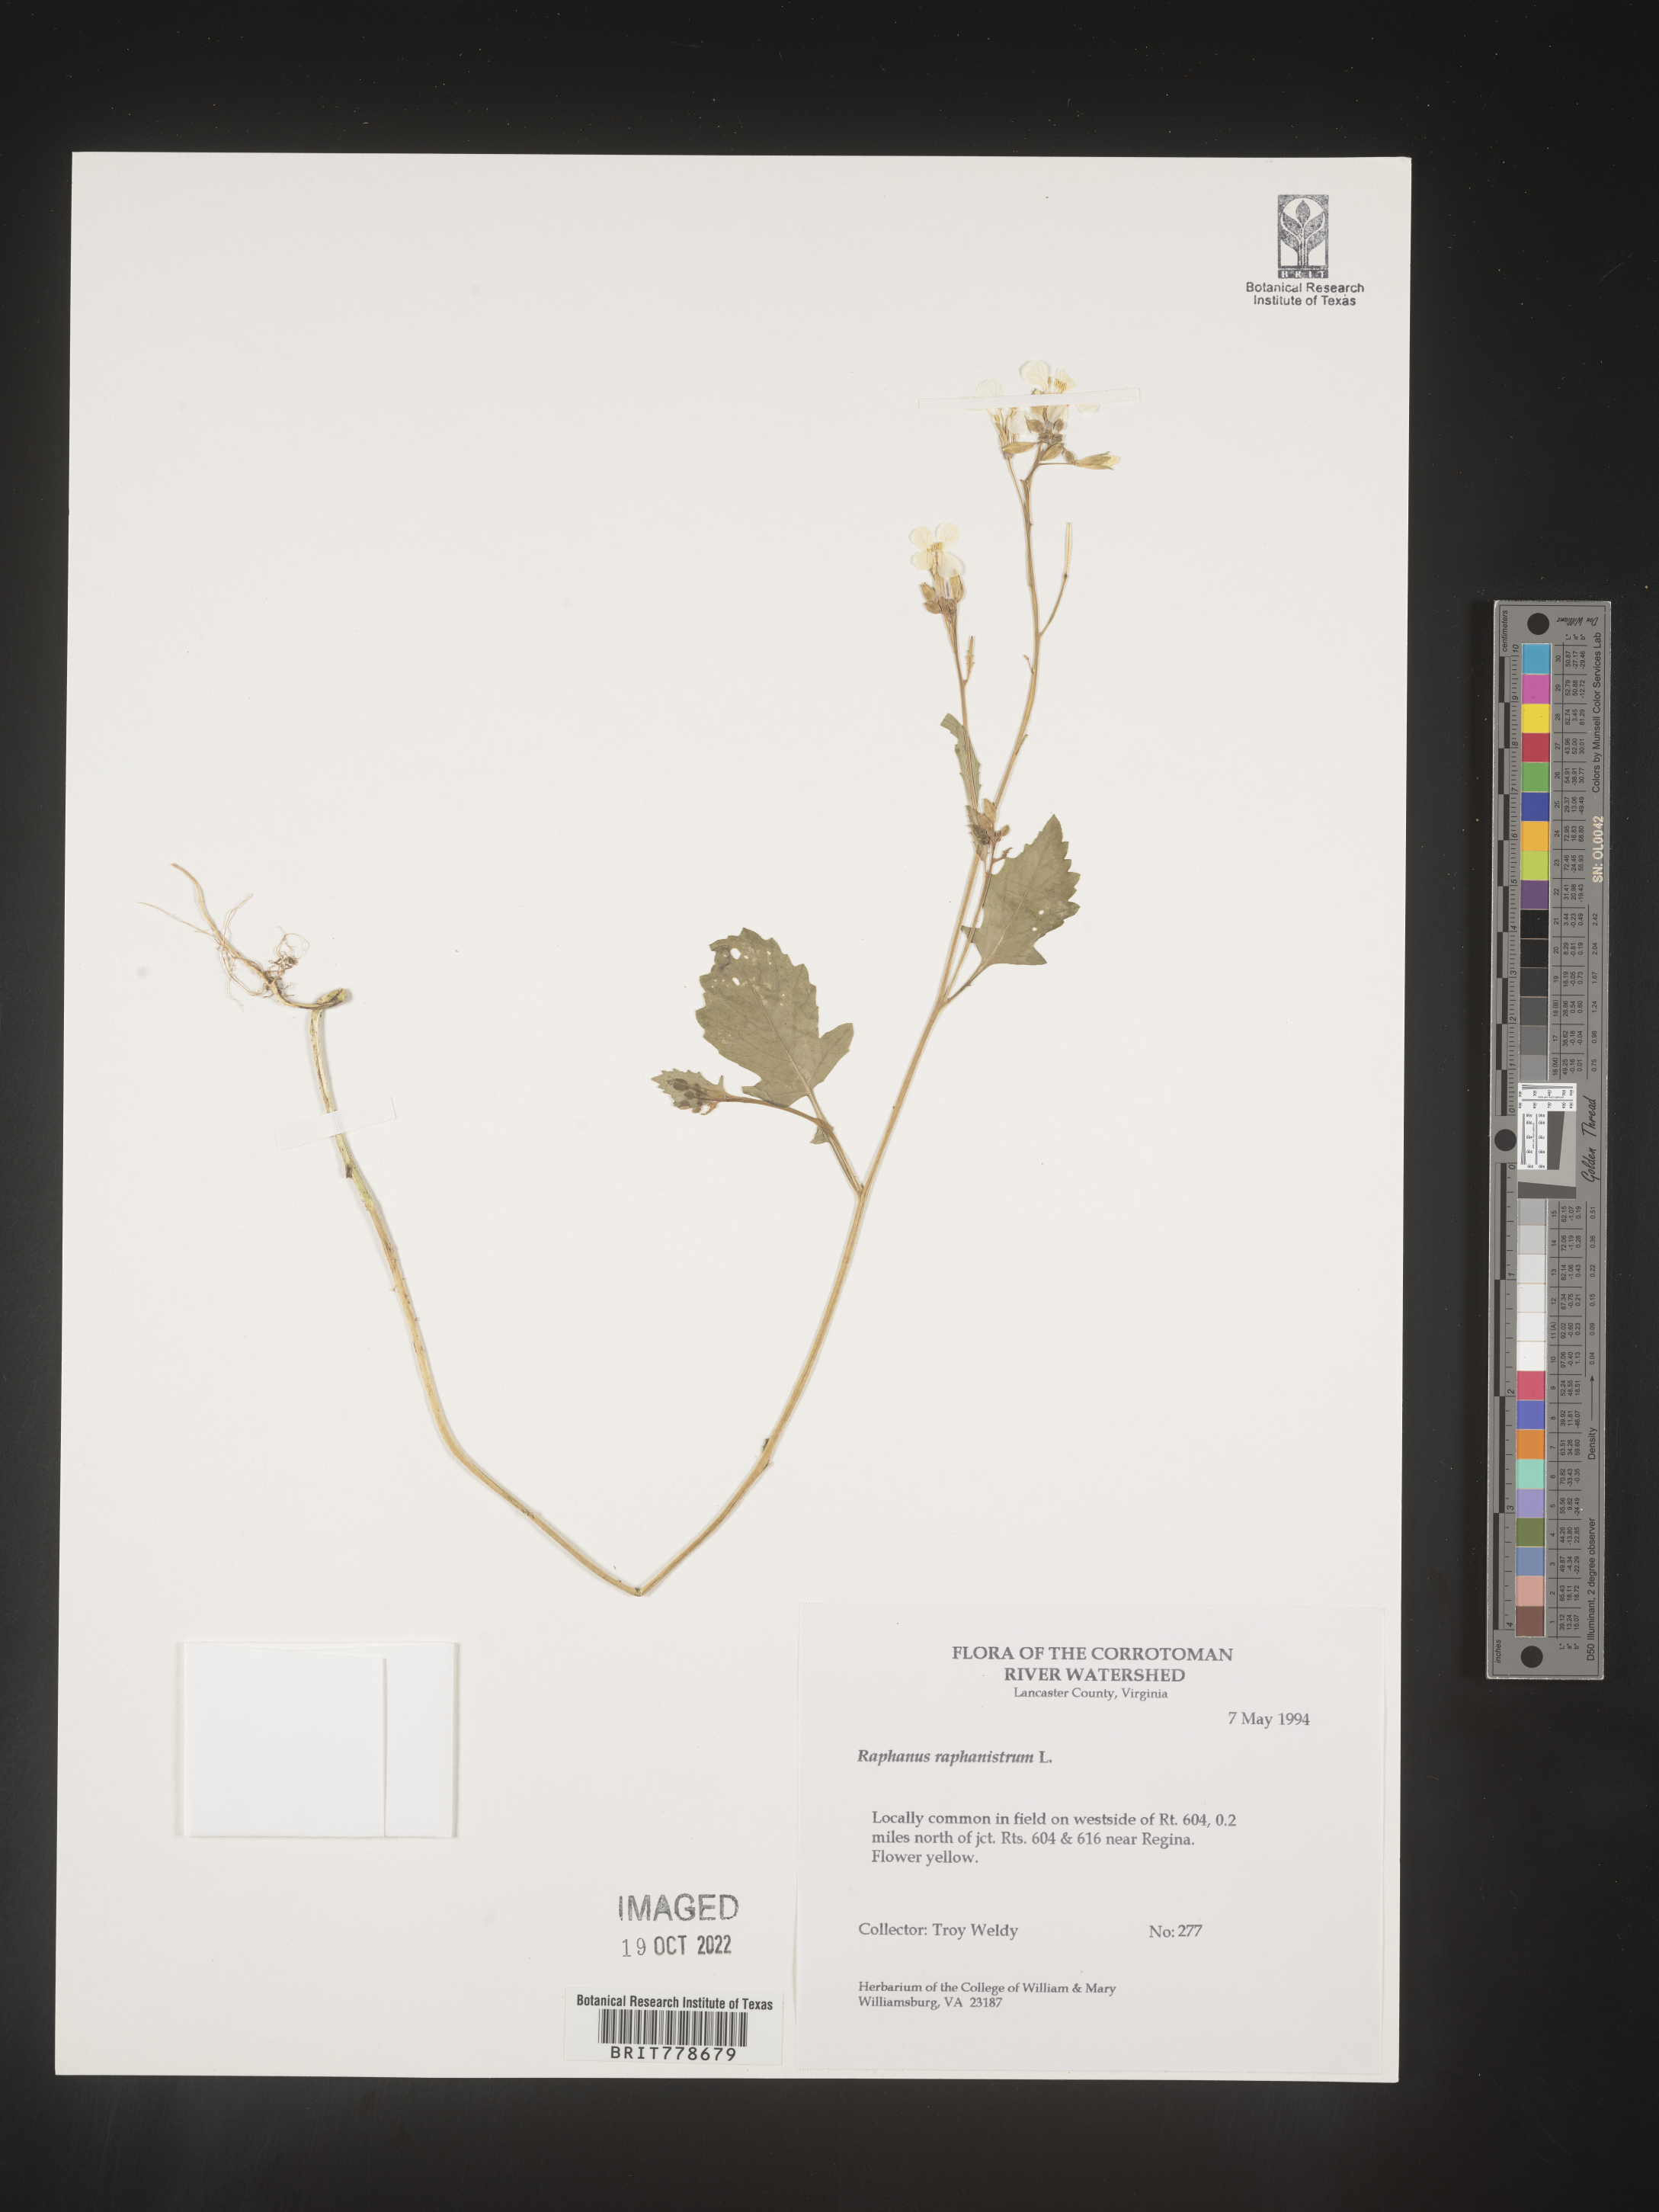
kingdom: Plantae
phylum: Tracheophyta
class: Magnoliopsida
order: Brassicales
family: Brassicaceae
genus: Raphanus
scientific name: Raphanus raphanistrum
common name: Wild radish
